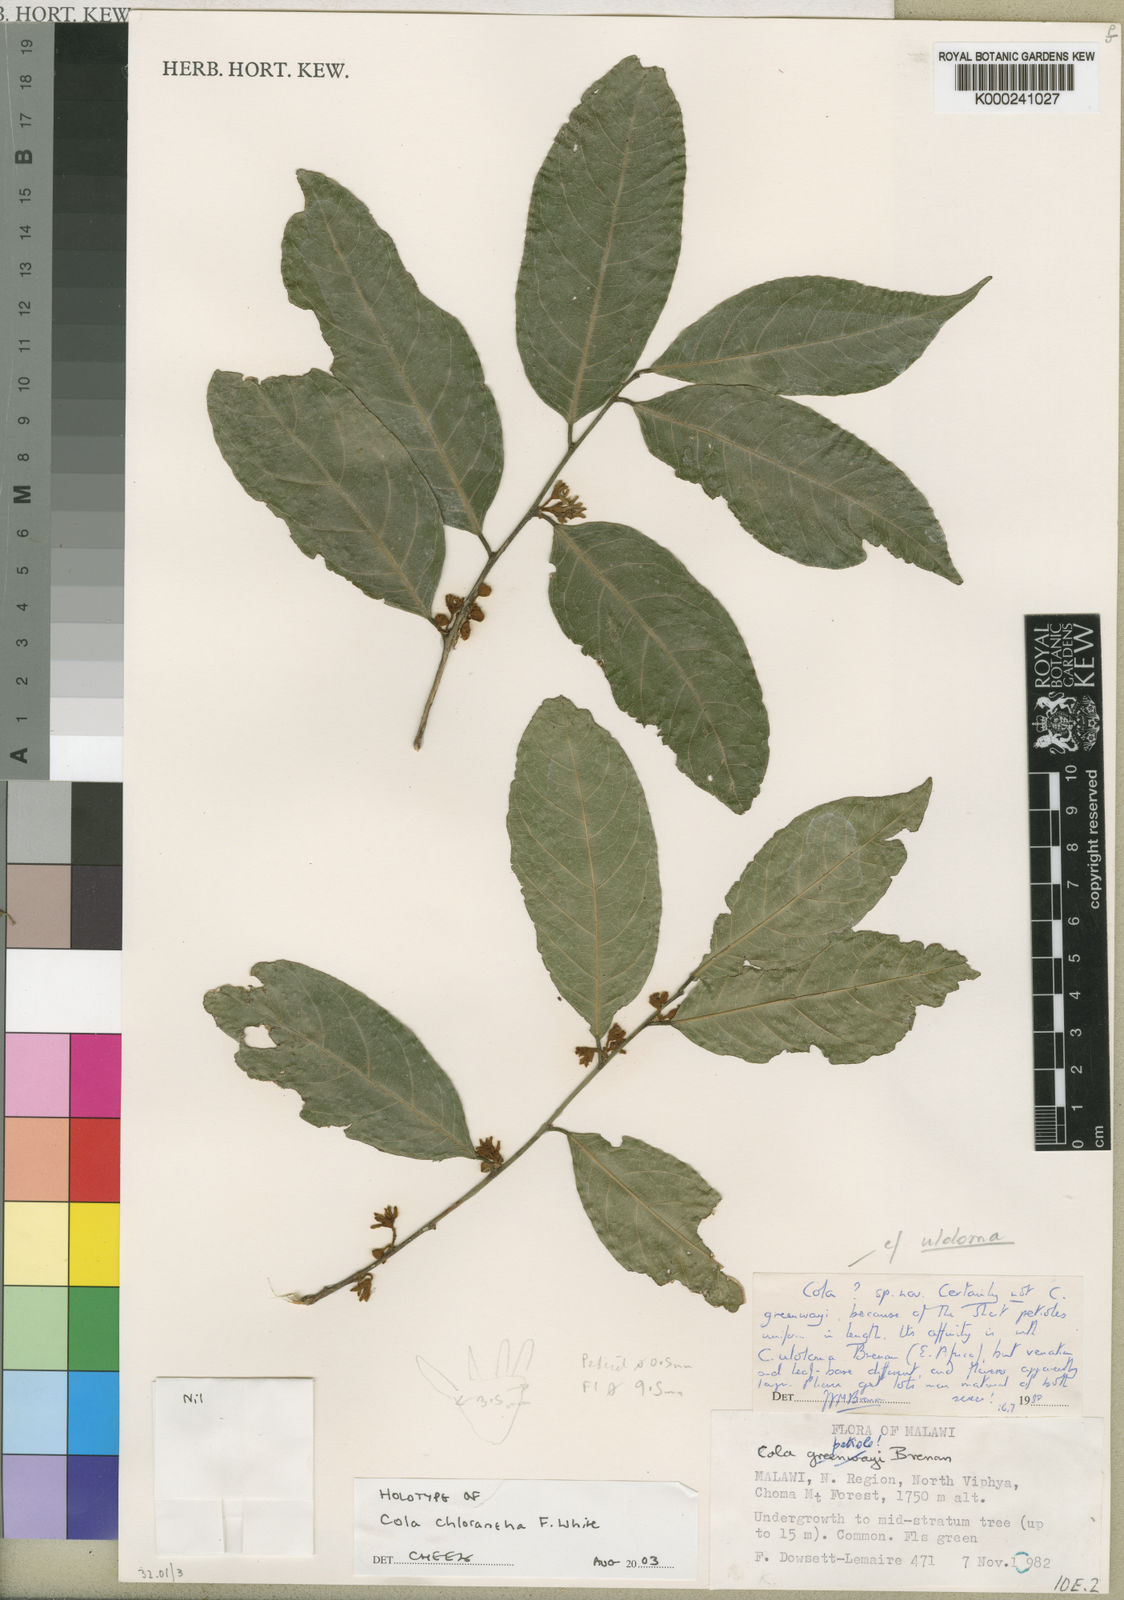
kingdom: Plantae
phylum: Tracheophyta
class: Magnoliopsida
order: Malvales
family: Malvaceae
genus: Cola
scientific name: Cola chlorantha
